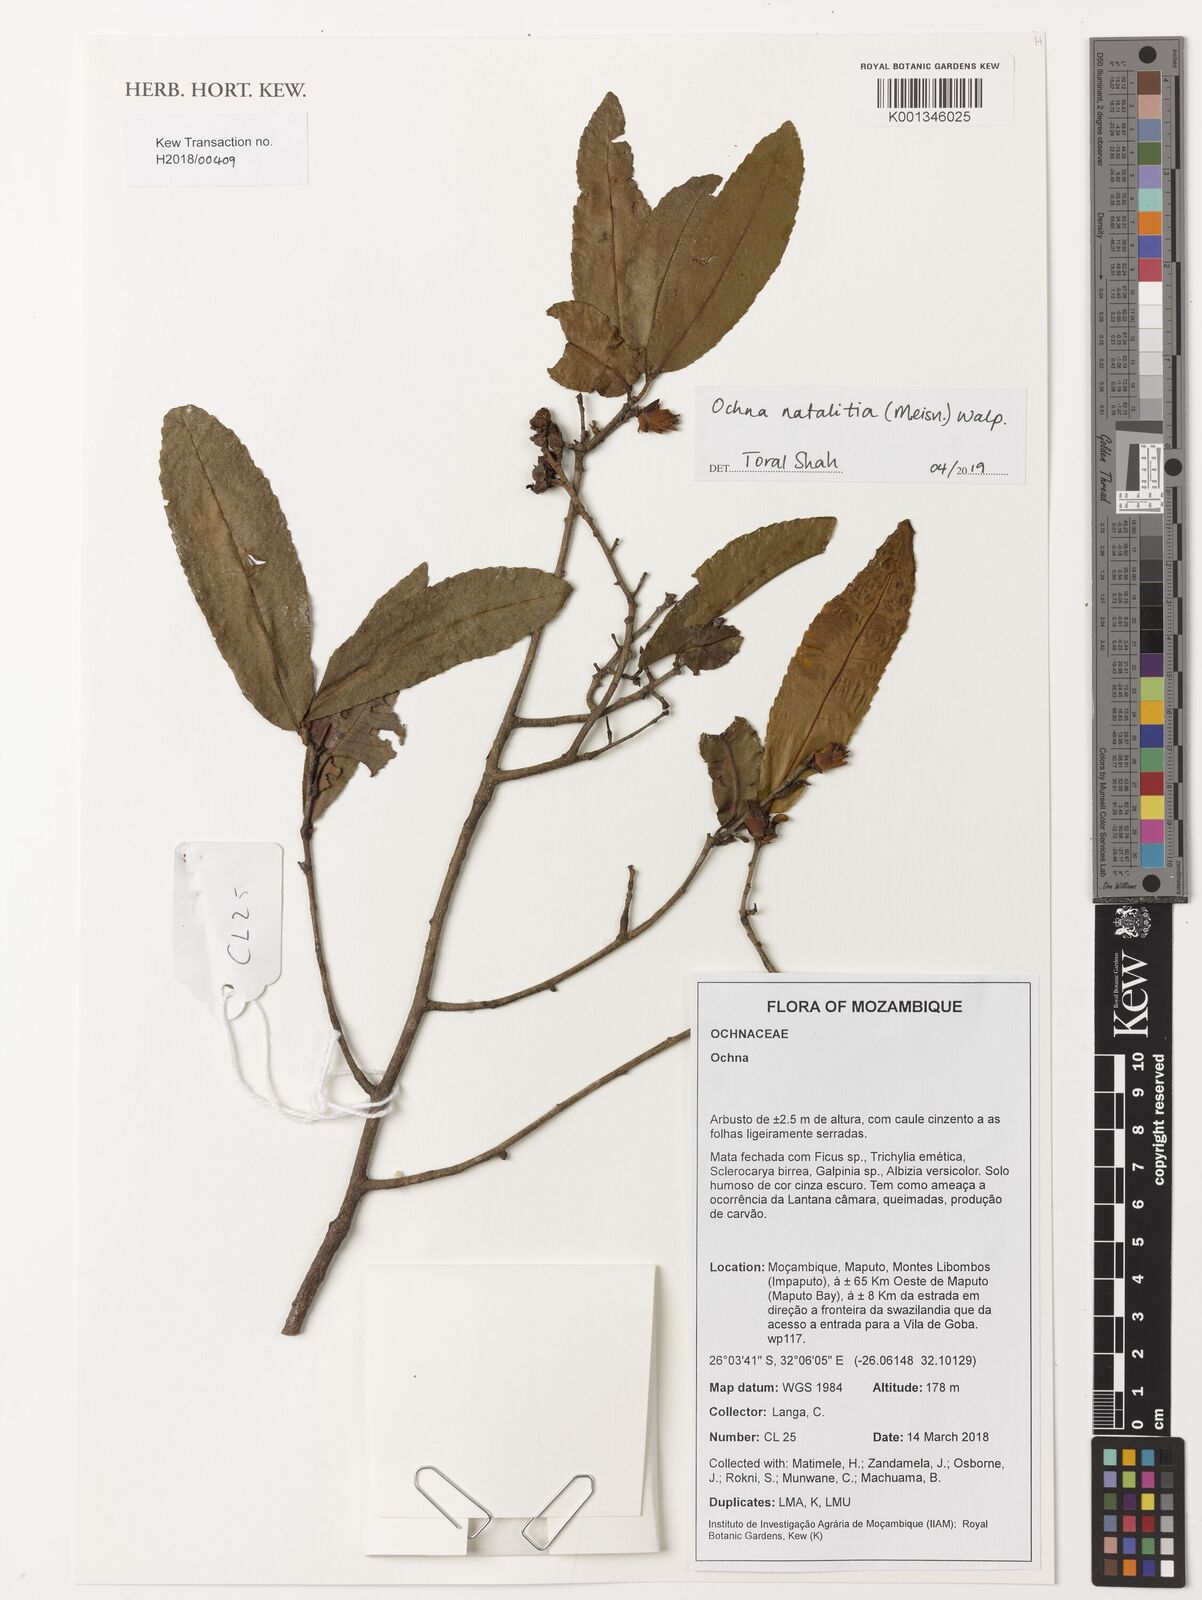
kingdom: Plantae
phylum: Tracheophyta
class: Magnoliopsida
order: Malpighiales
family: Ochnaceae
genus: Ochna
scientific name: Ochna natalitia
